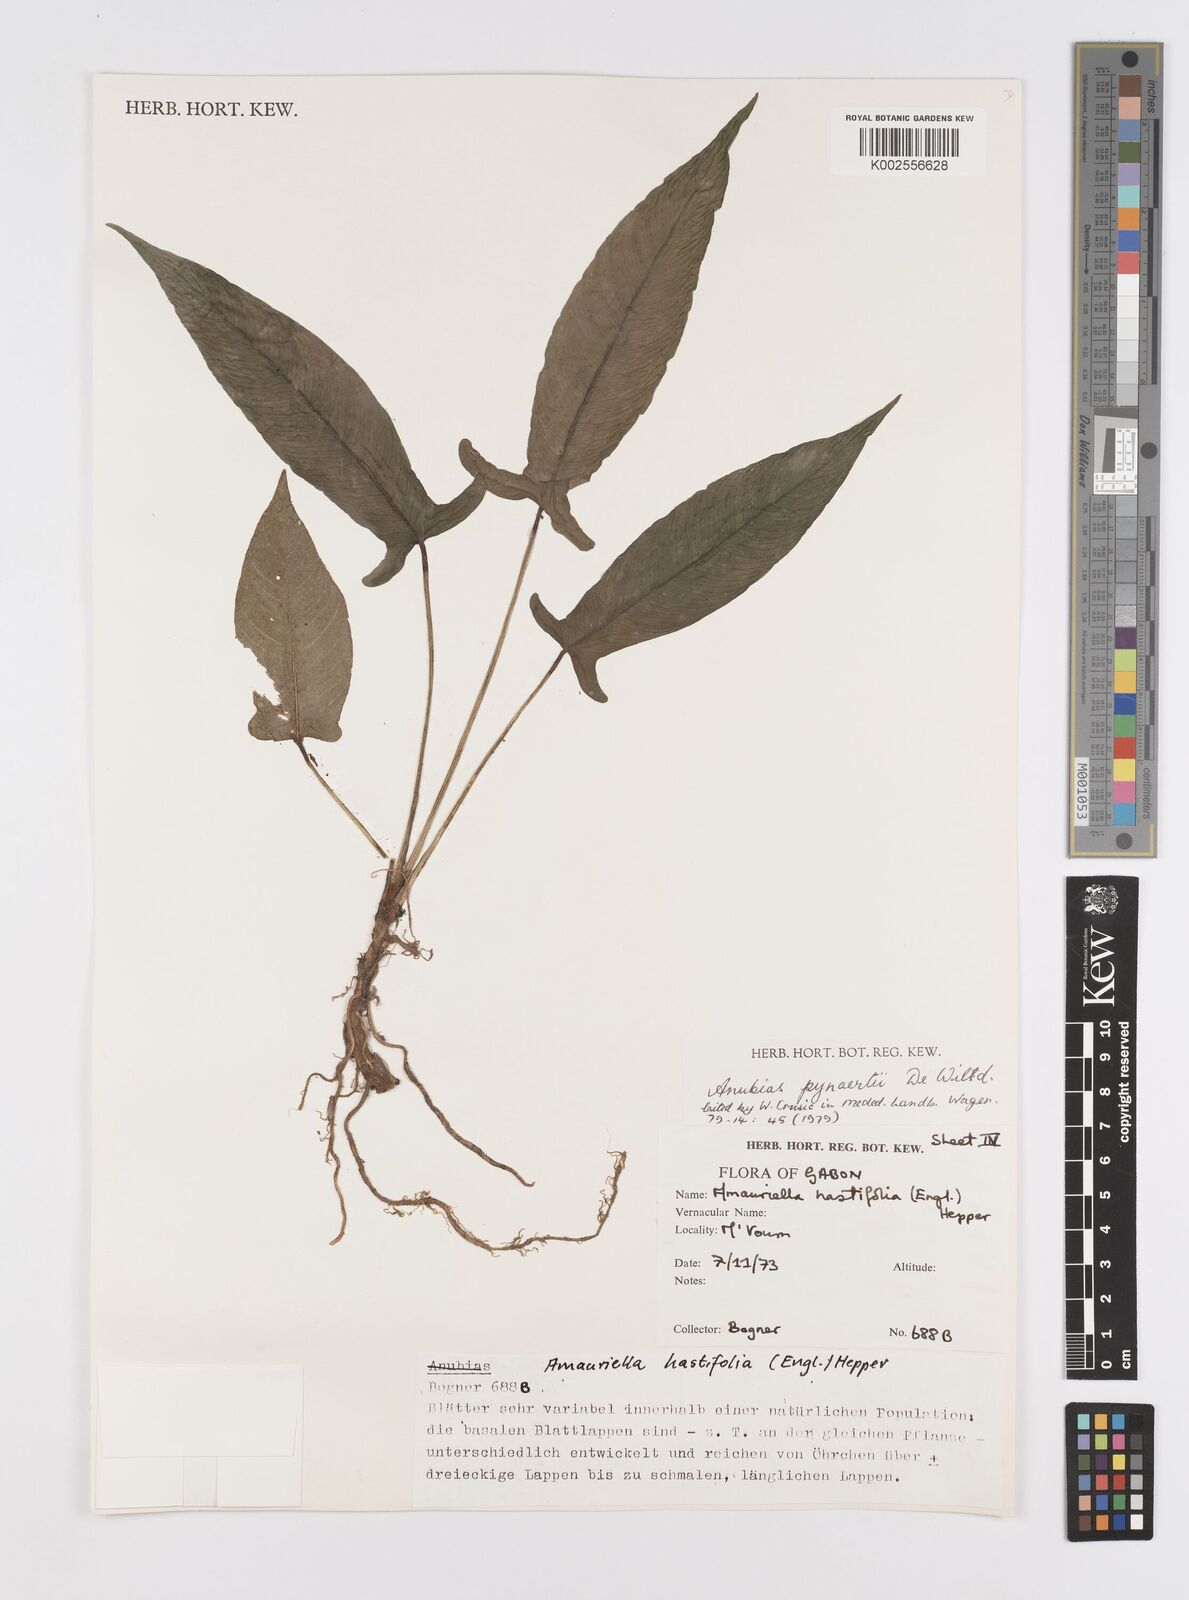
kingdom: Plantae
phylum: Tracheophyta
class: Liliopsida
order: Alismatales
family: Araceae
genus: Anubias
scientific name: Anubias pynaertii
